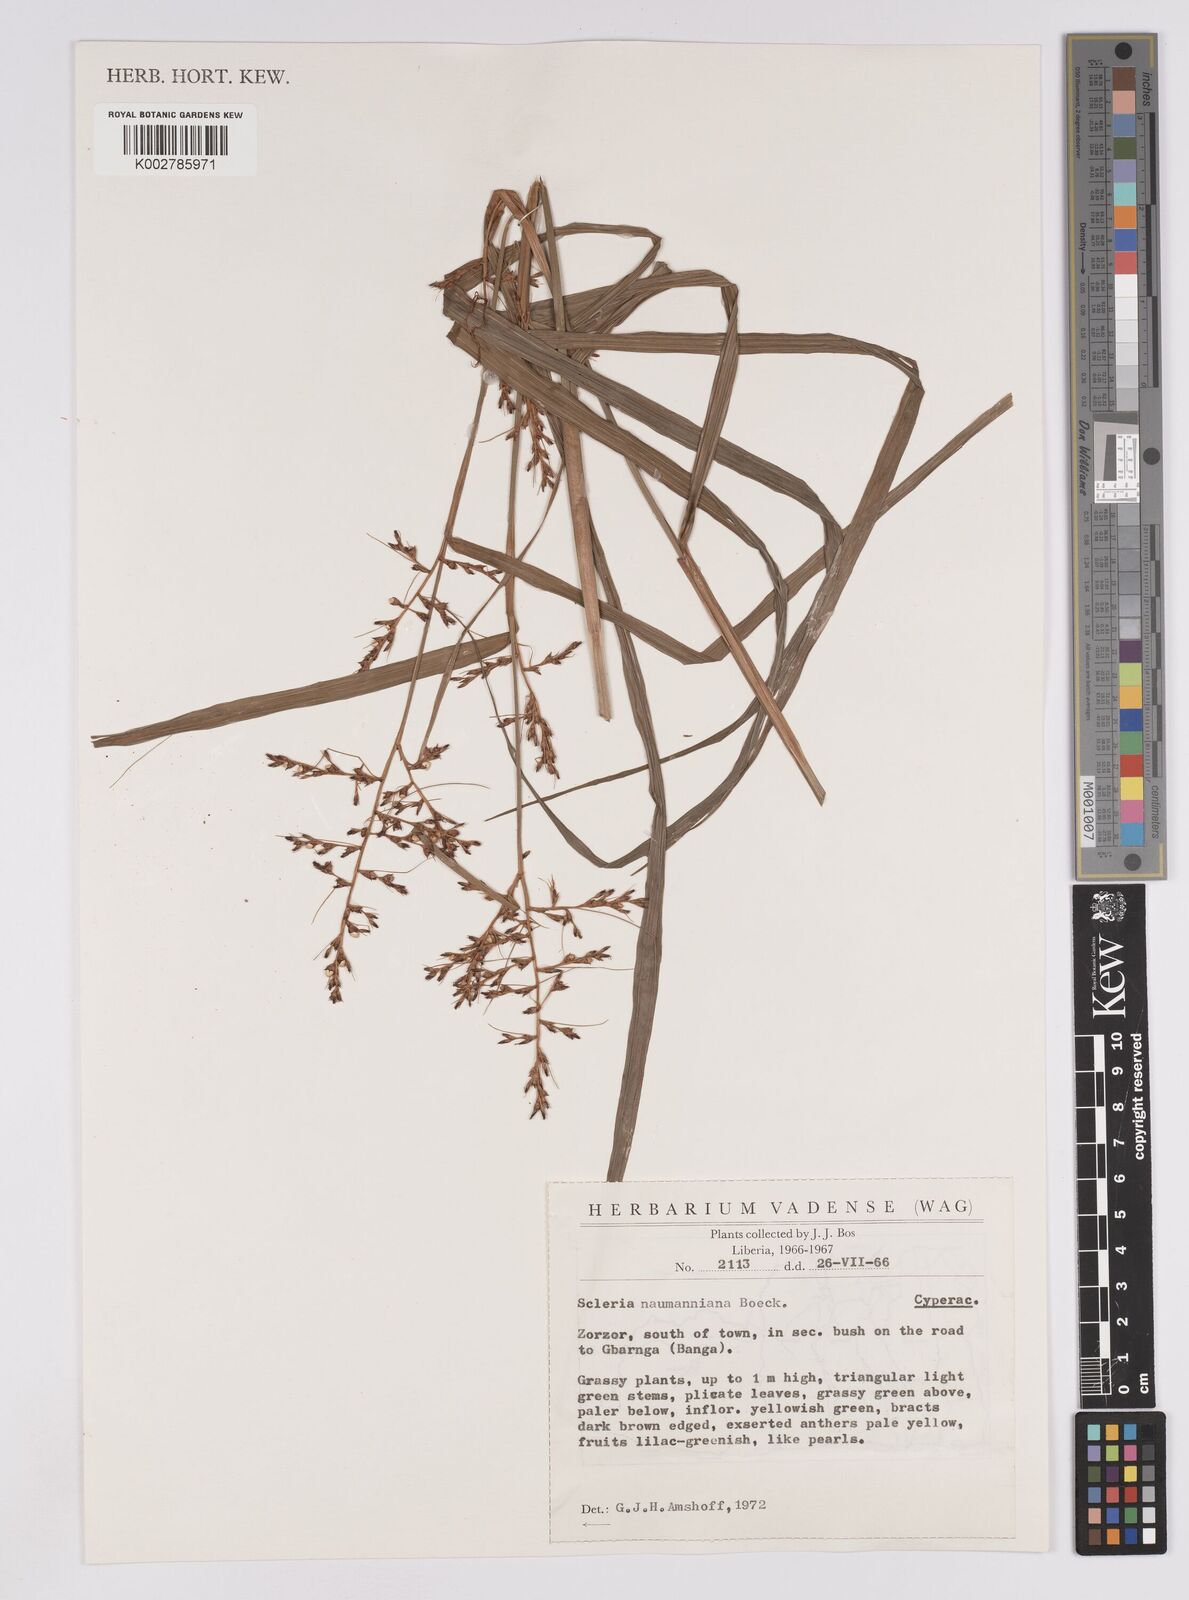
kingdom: Plantae
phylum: Tracheophyta
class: Liliopsida
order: Poales
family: Cyperaceae
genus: Scleria
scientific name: Scleria naumanniana
